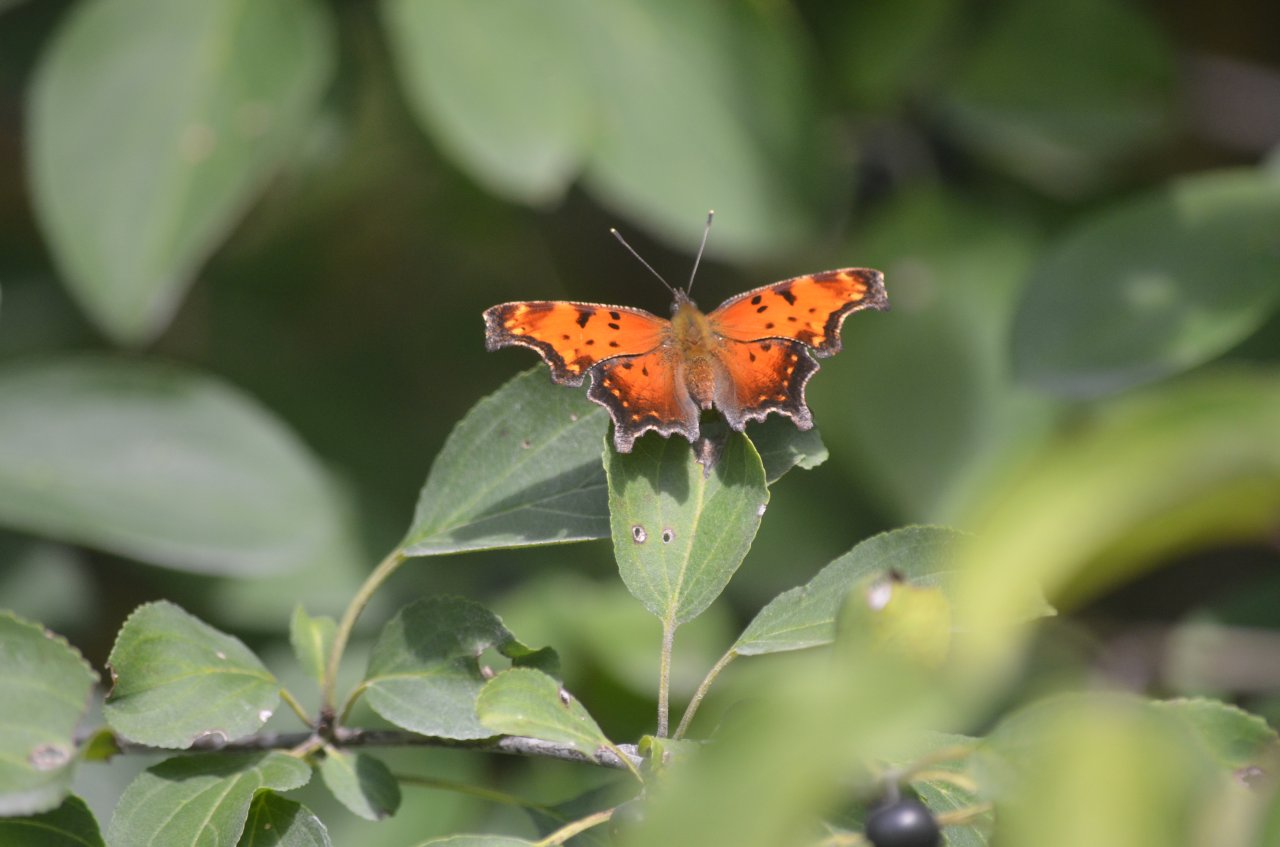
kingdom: Animalia
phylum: Arthropoda
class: Insecta
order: Lepidoptera
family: Nymphalidae
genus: Polygonia
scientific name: Polygonia progne
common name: Gray Comma
